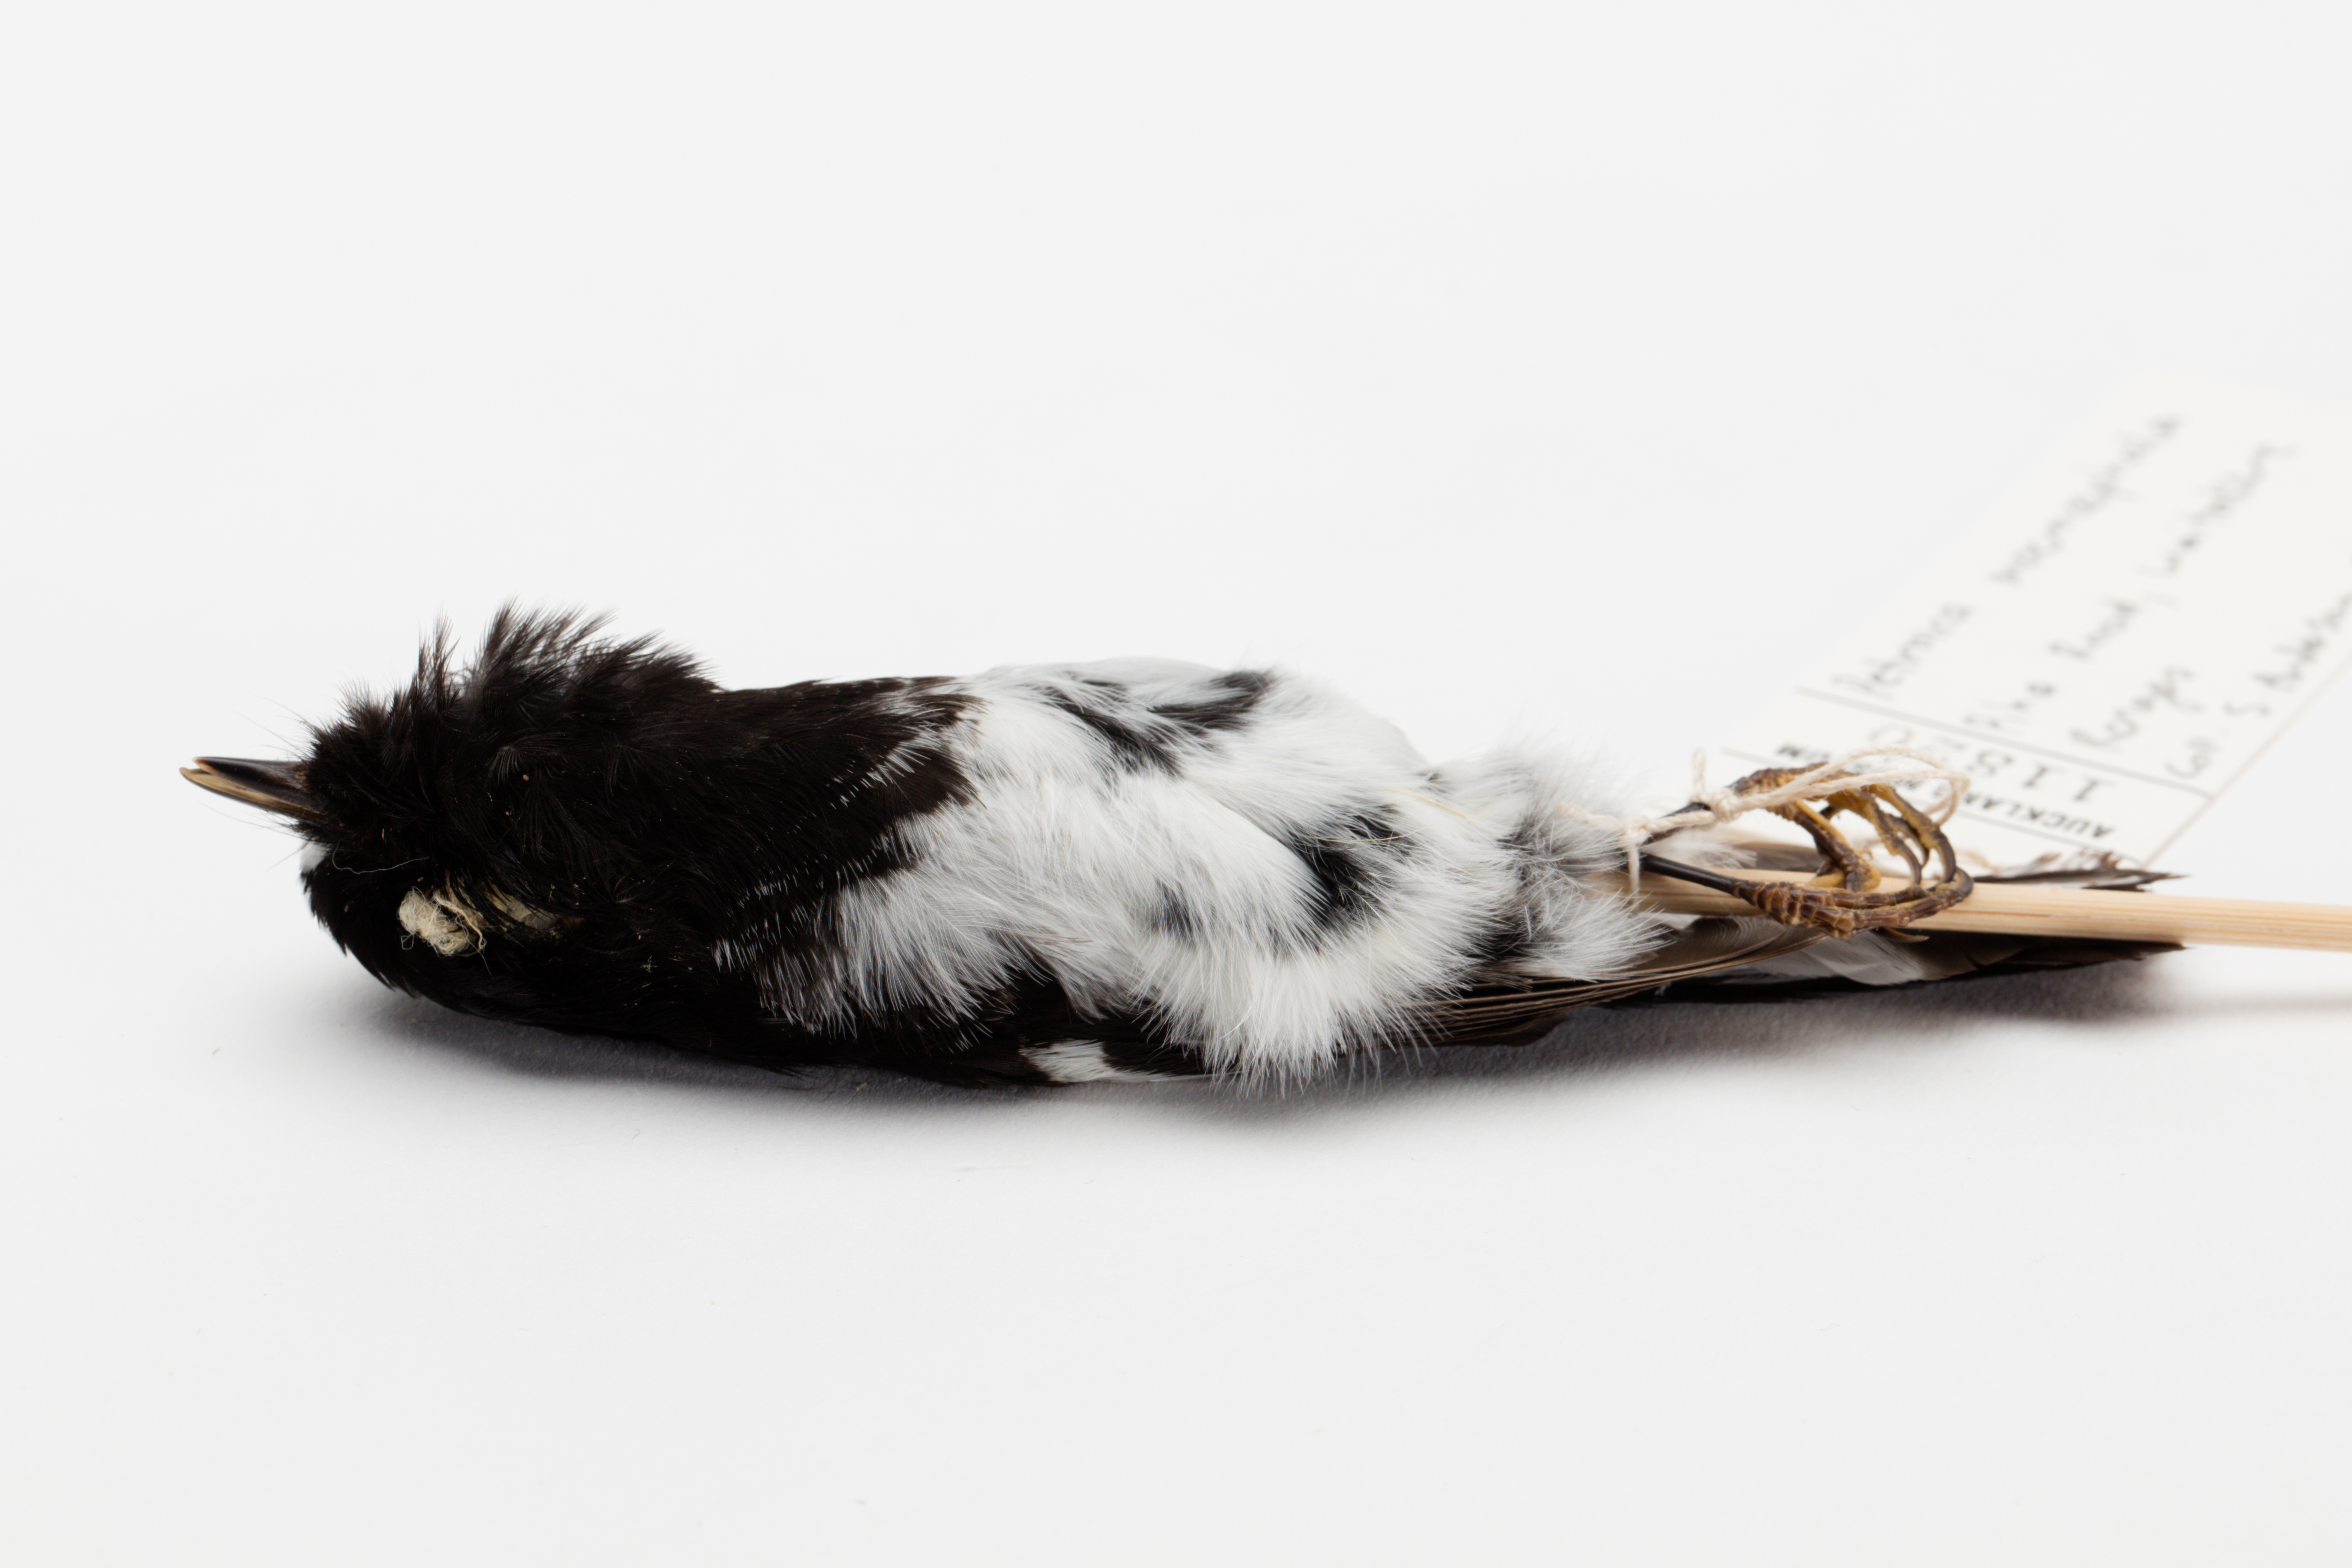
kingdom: Animalia
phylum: Chordata
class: Aves
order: Passeriformes
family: Petroicidae
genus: Petroica
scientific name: Petroica macrocephala
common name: Tomtit
